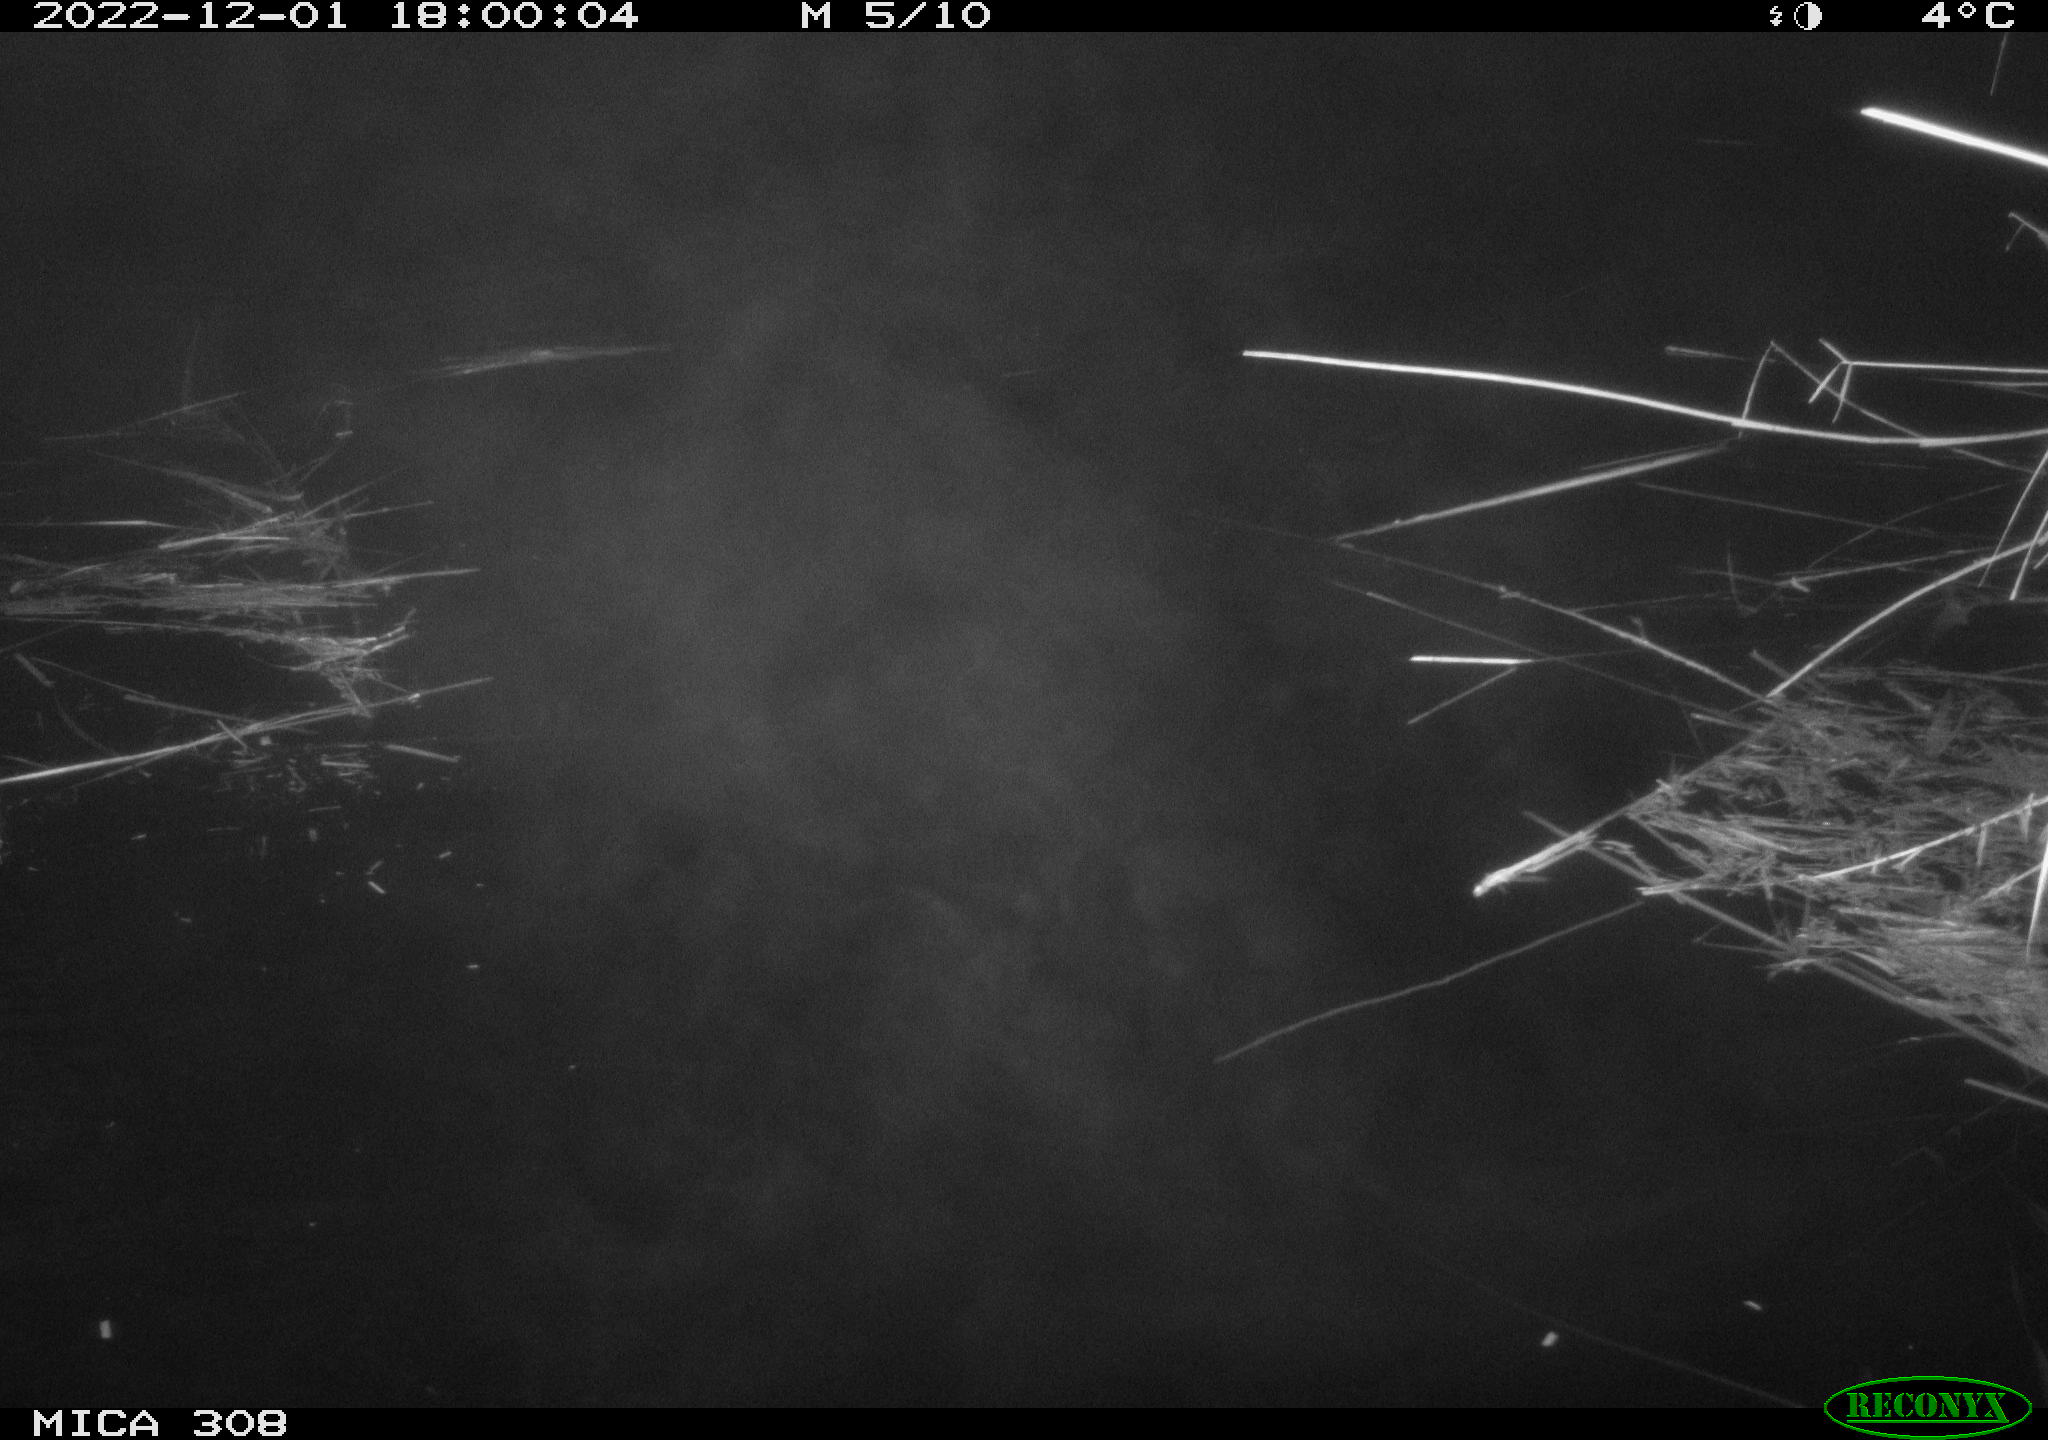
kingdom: Animalia
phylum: Chordata
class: Mammalia
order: Rodentia
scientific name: Rodentia
